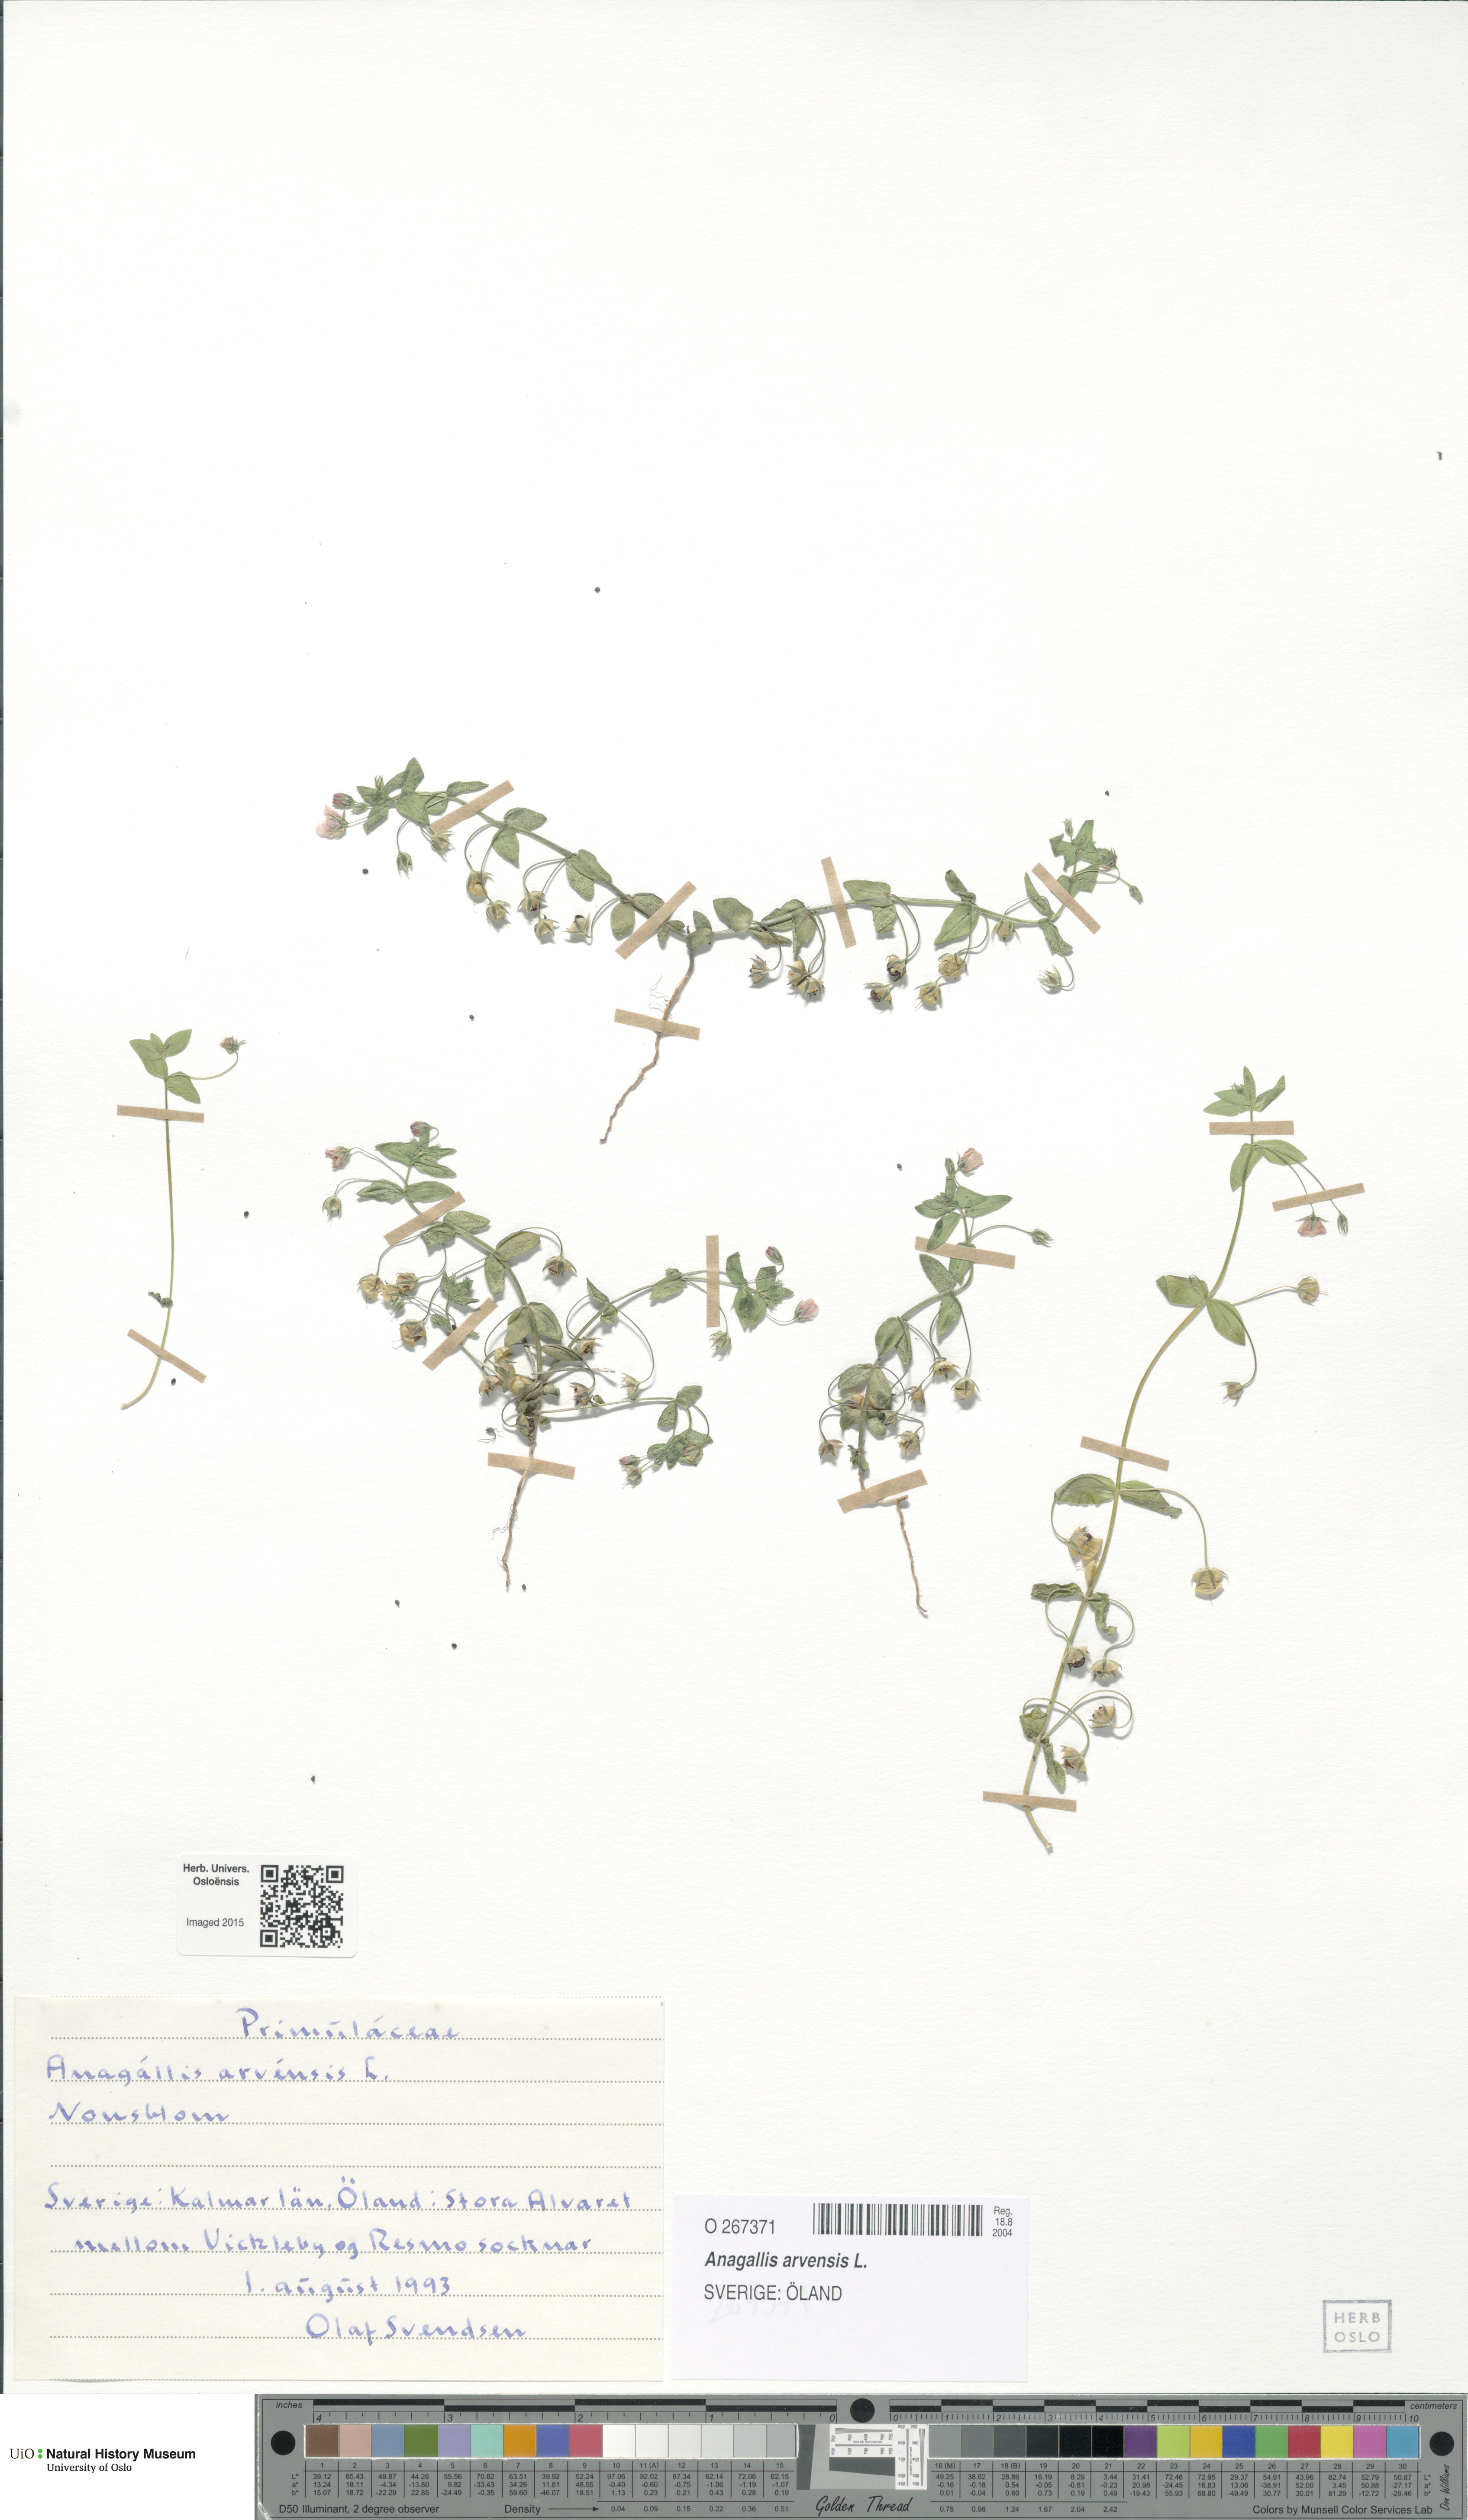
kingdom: Plantae
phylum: Tracheophyta
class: Magnoliopsida
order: Ericales
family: Primulaceae
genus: Lysimachia
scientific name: Lysimachia arvensis
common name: Scarlet pimpernel
